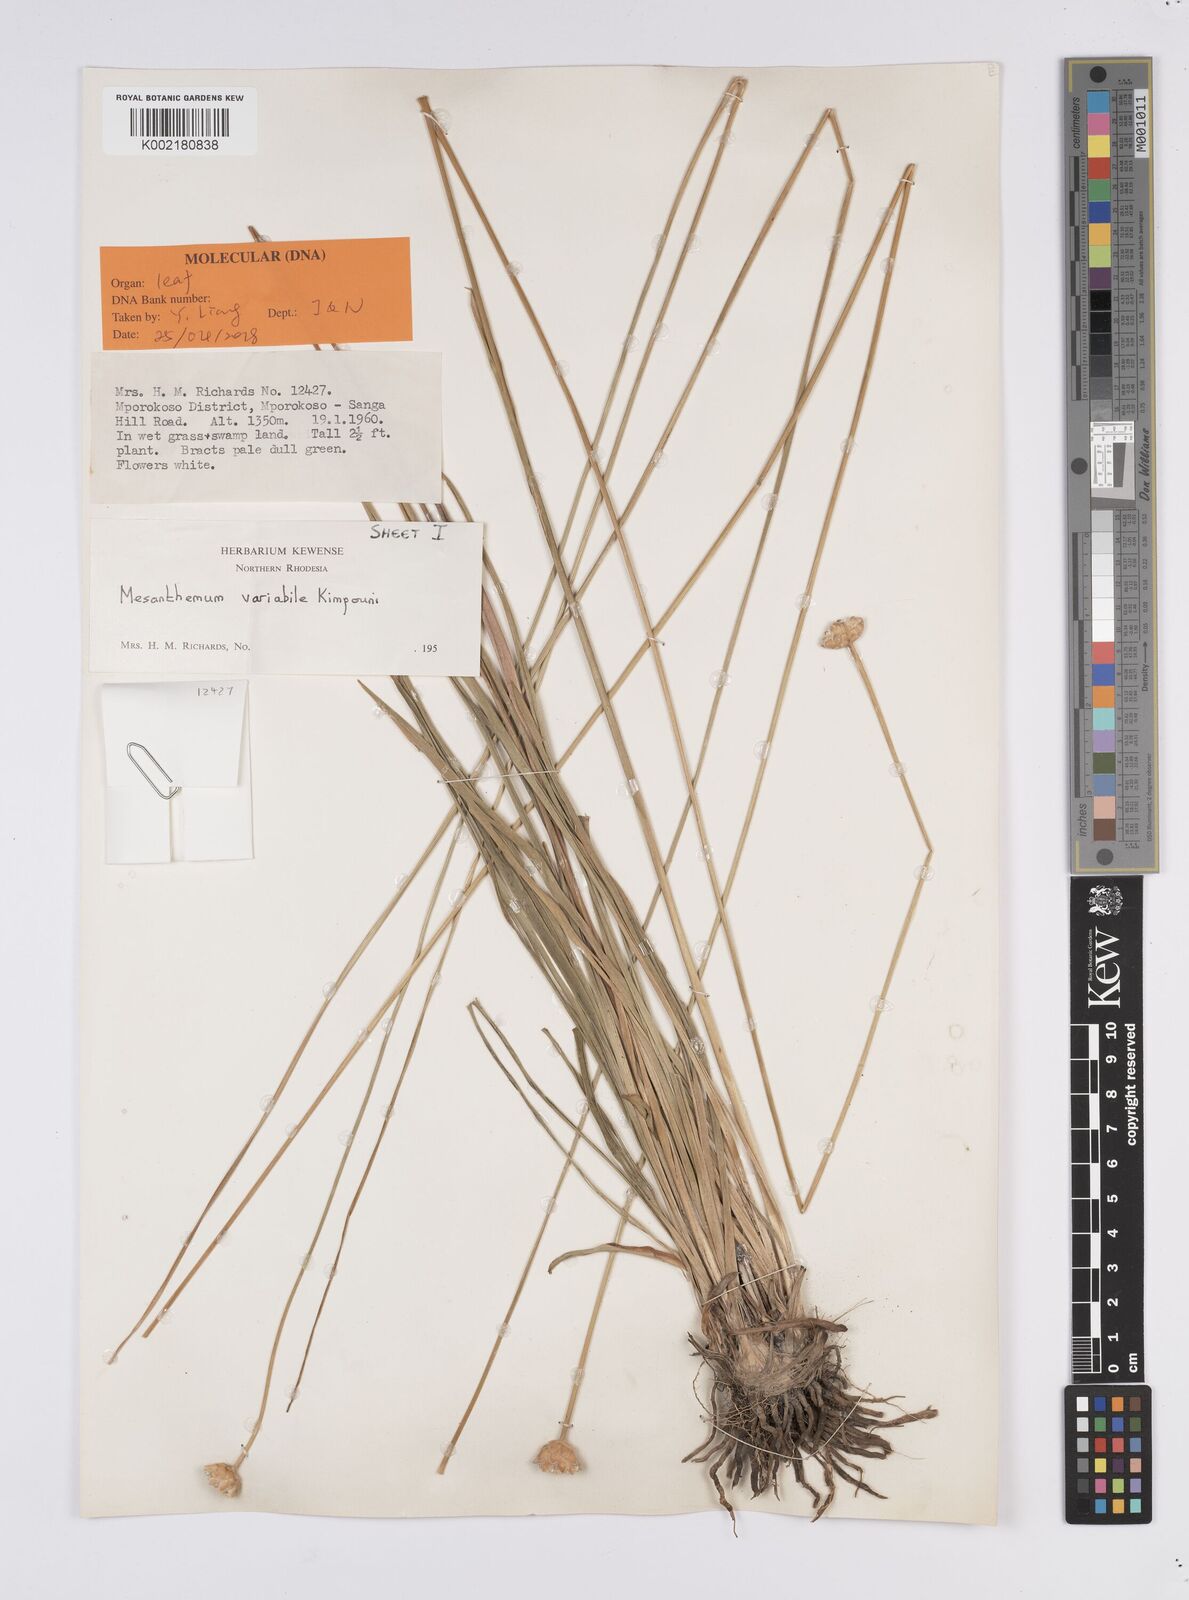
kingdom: Plantae
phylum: Tracheophyta
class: Liliopsida
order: Poales
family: Eriocaulaceae
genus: Mesanthemum
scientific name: Mesanthemum variabile
